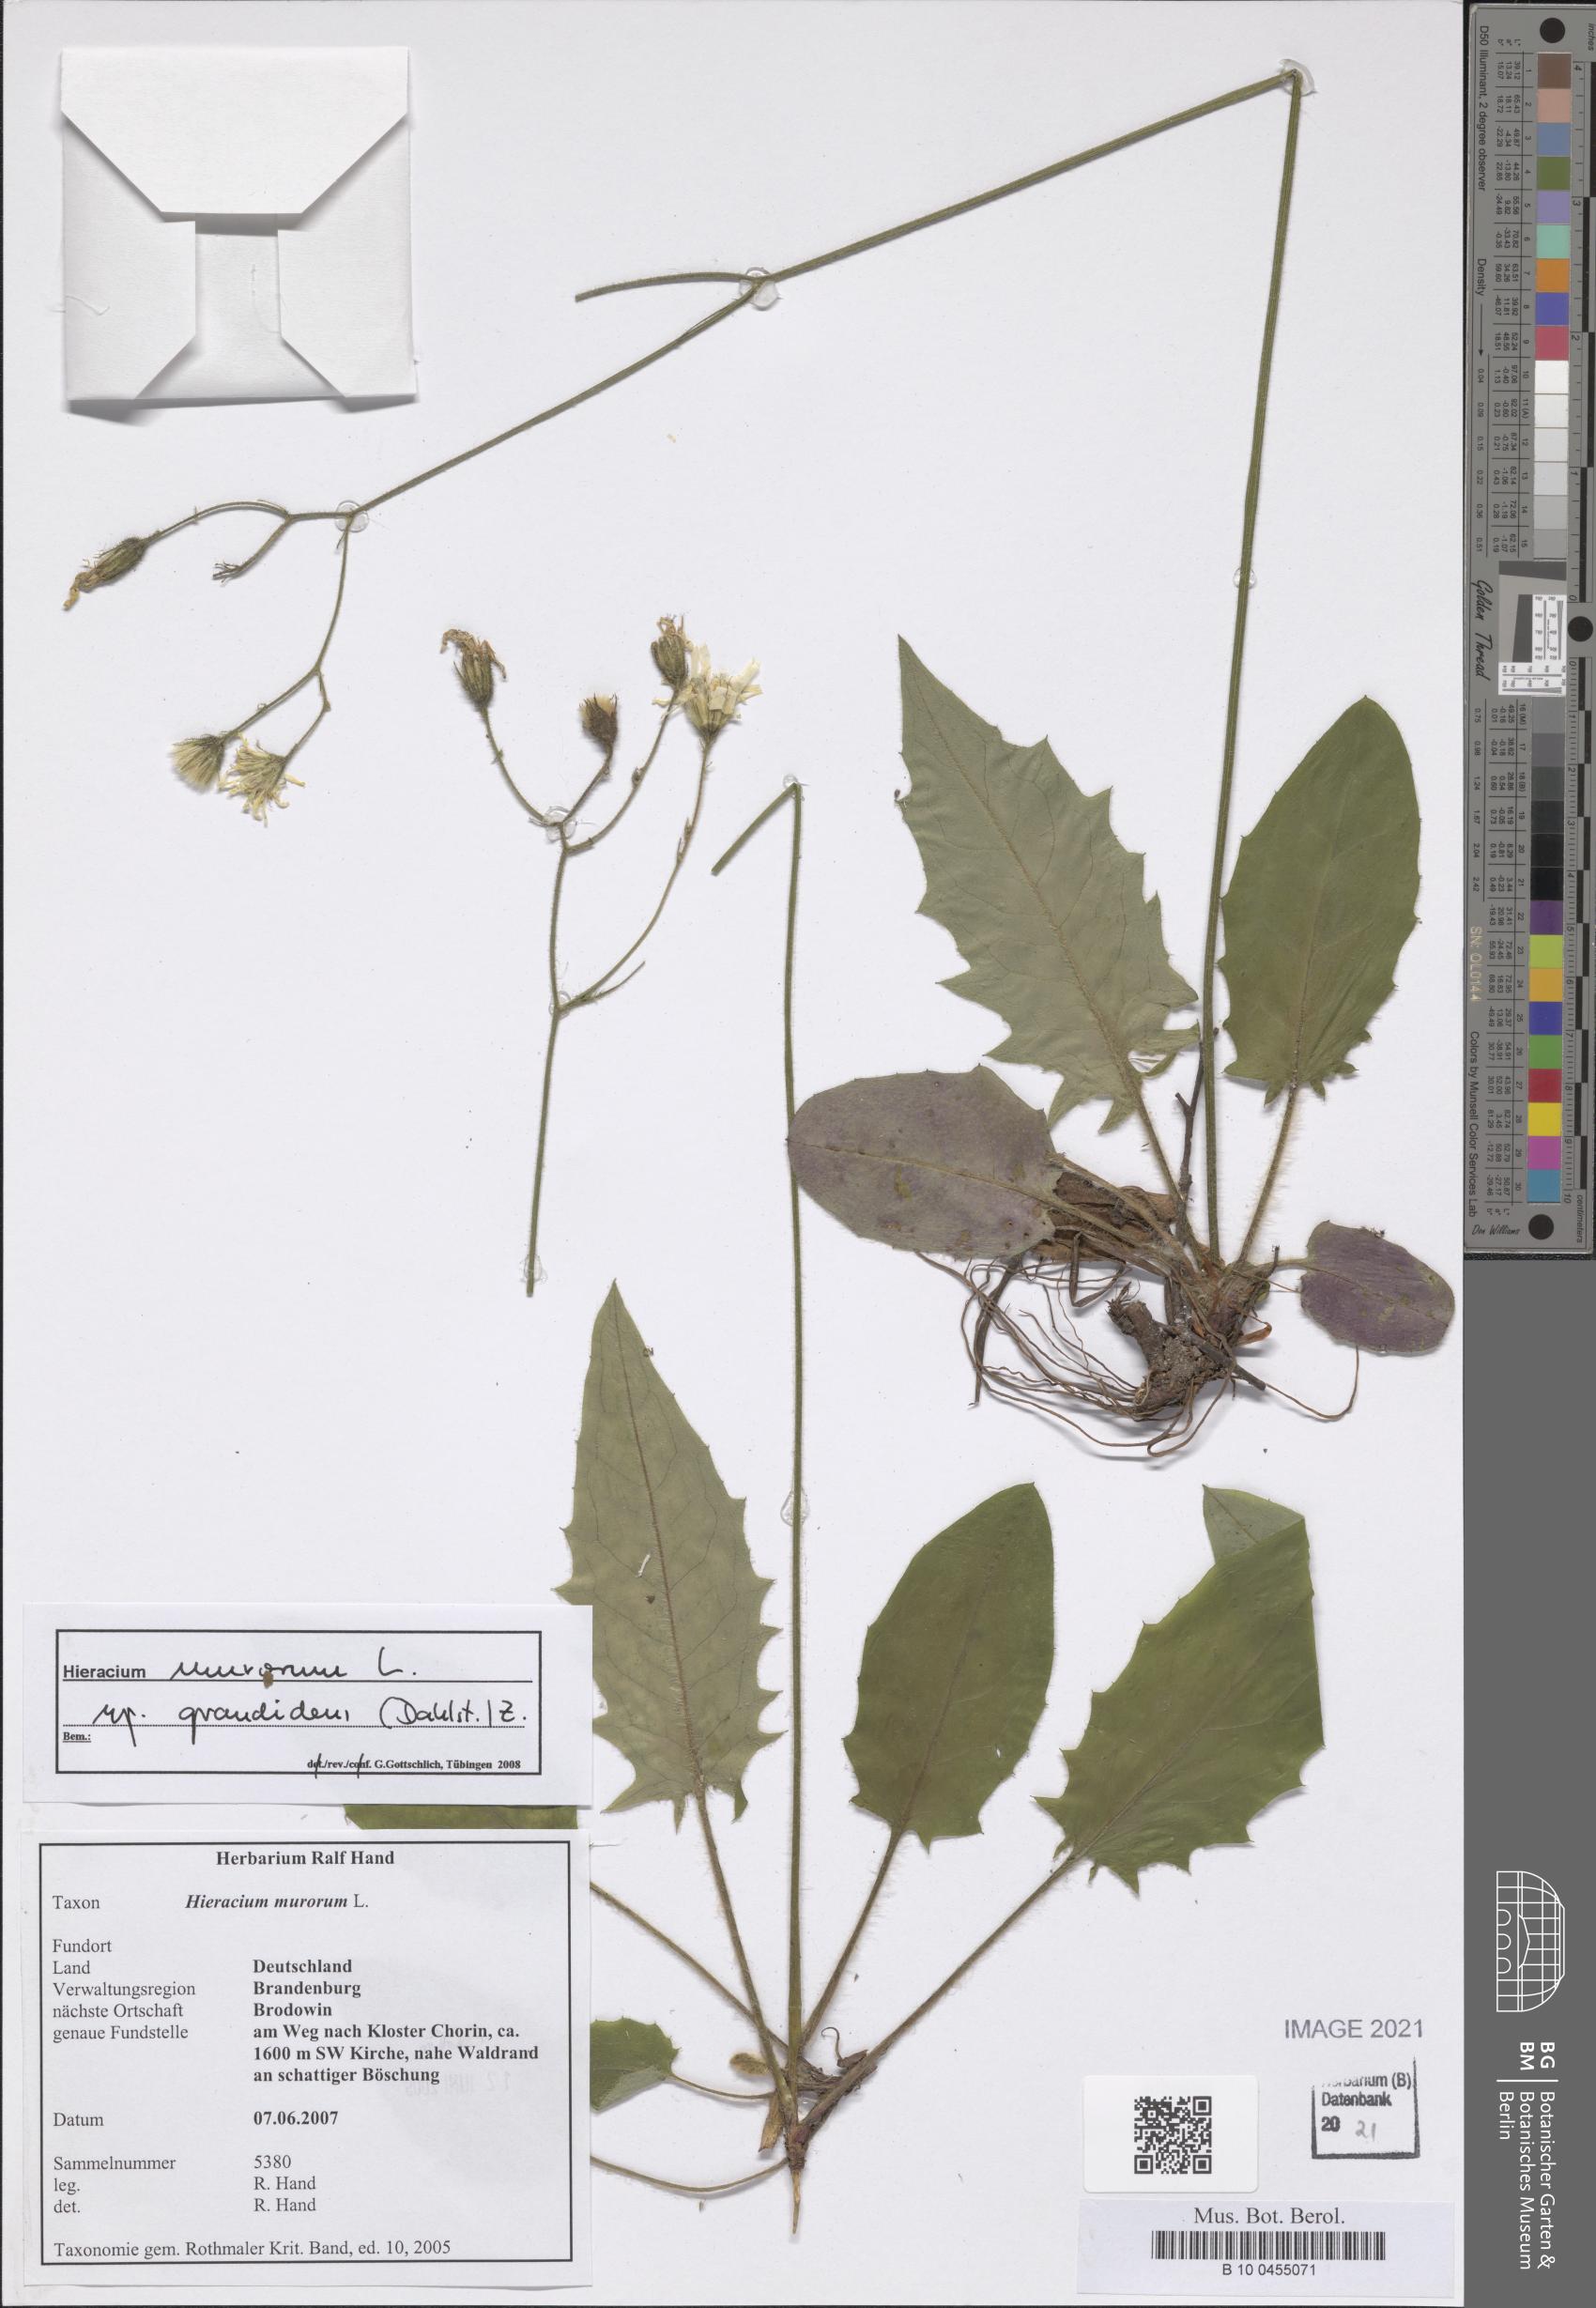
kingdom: Plantae
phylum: Tracheophyta
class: Magnoliopsida
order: Asterales
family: Asteraceae
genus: Hieracium
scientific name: Hieracium murorum
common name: Wall hawkweed
